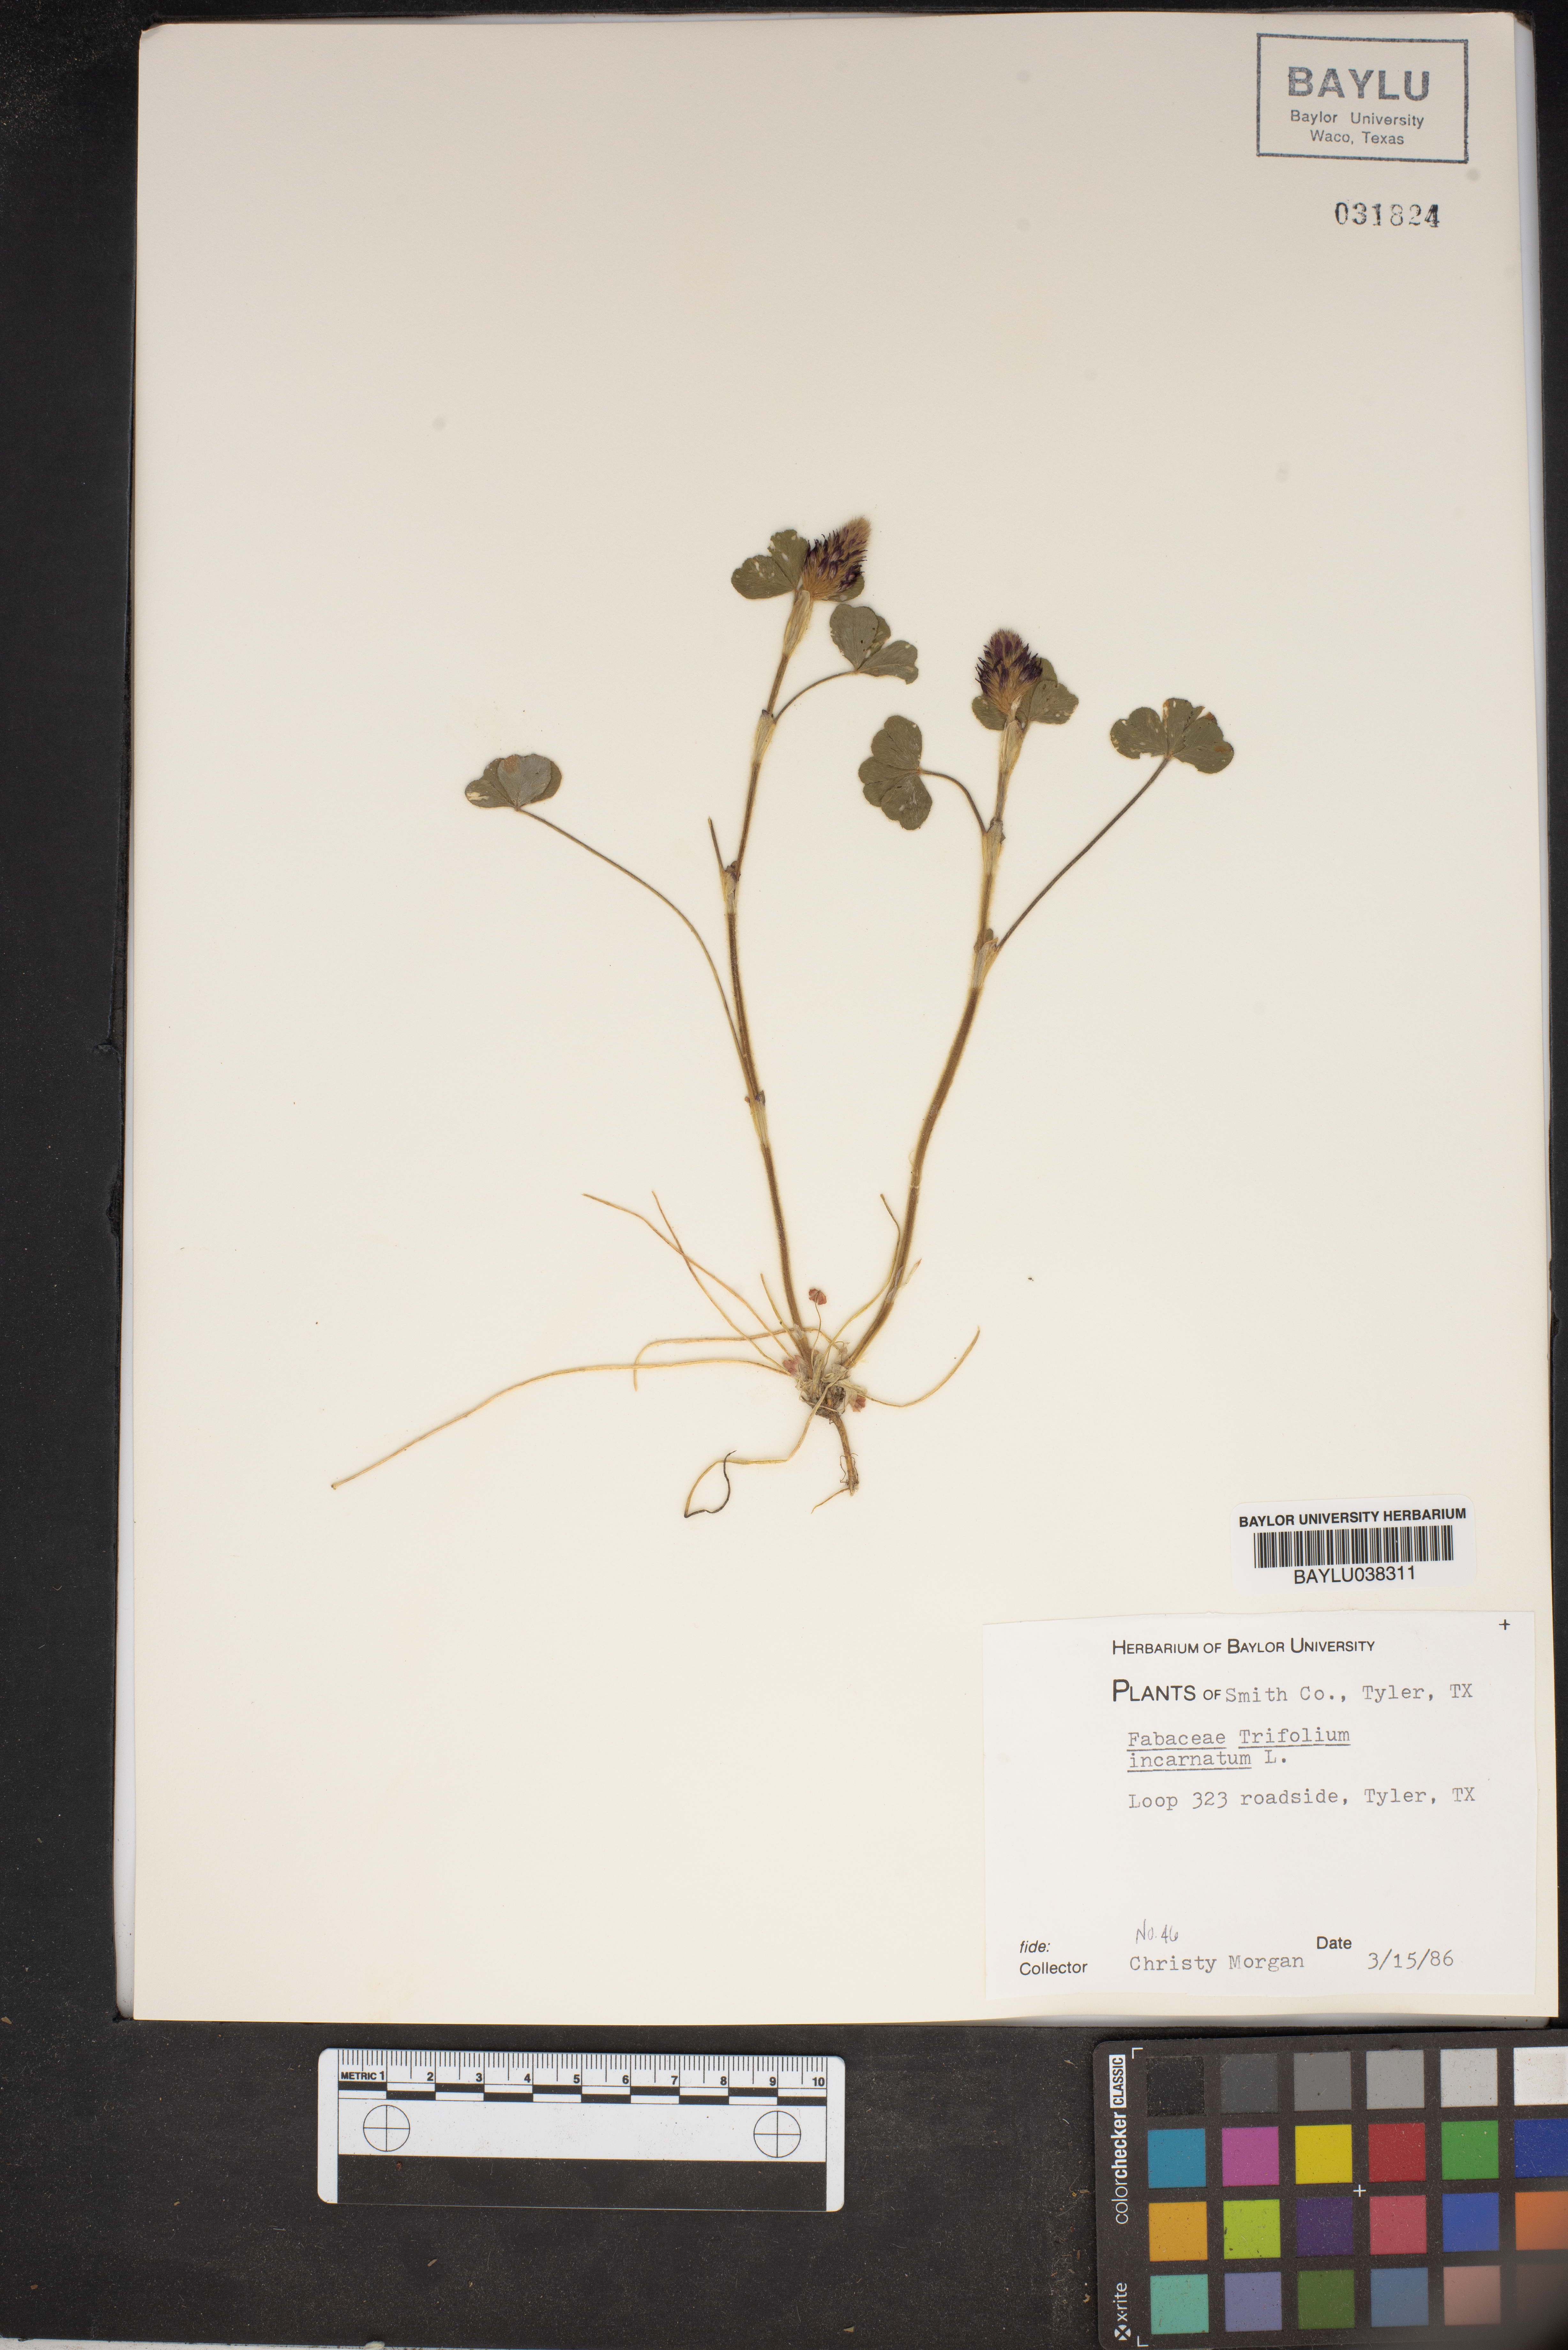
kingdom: Plantae
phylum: Tracheophyta
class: Magnoliopsida
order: Fabales
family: Fabaceae
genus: Trifolium
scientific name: Trifolium incarnatum
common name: Crimson clover
